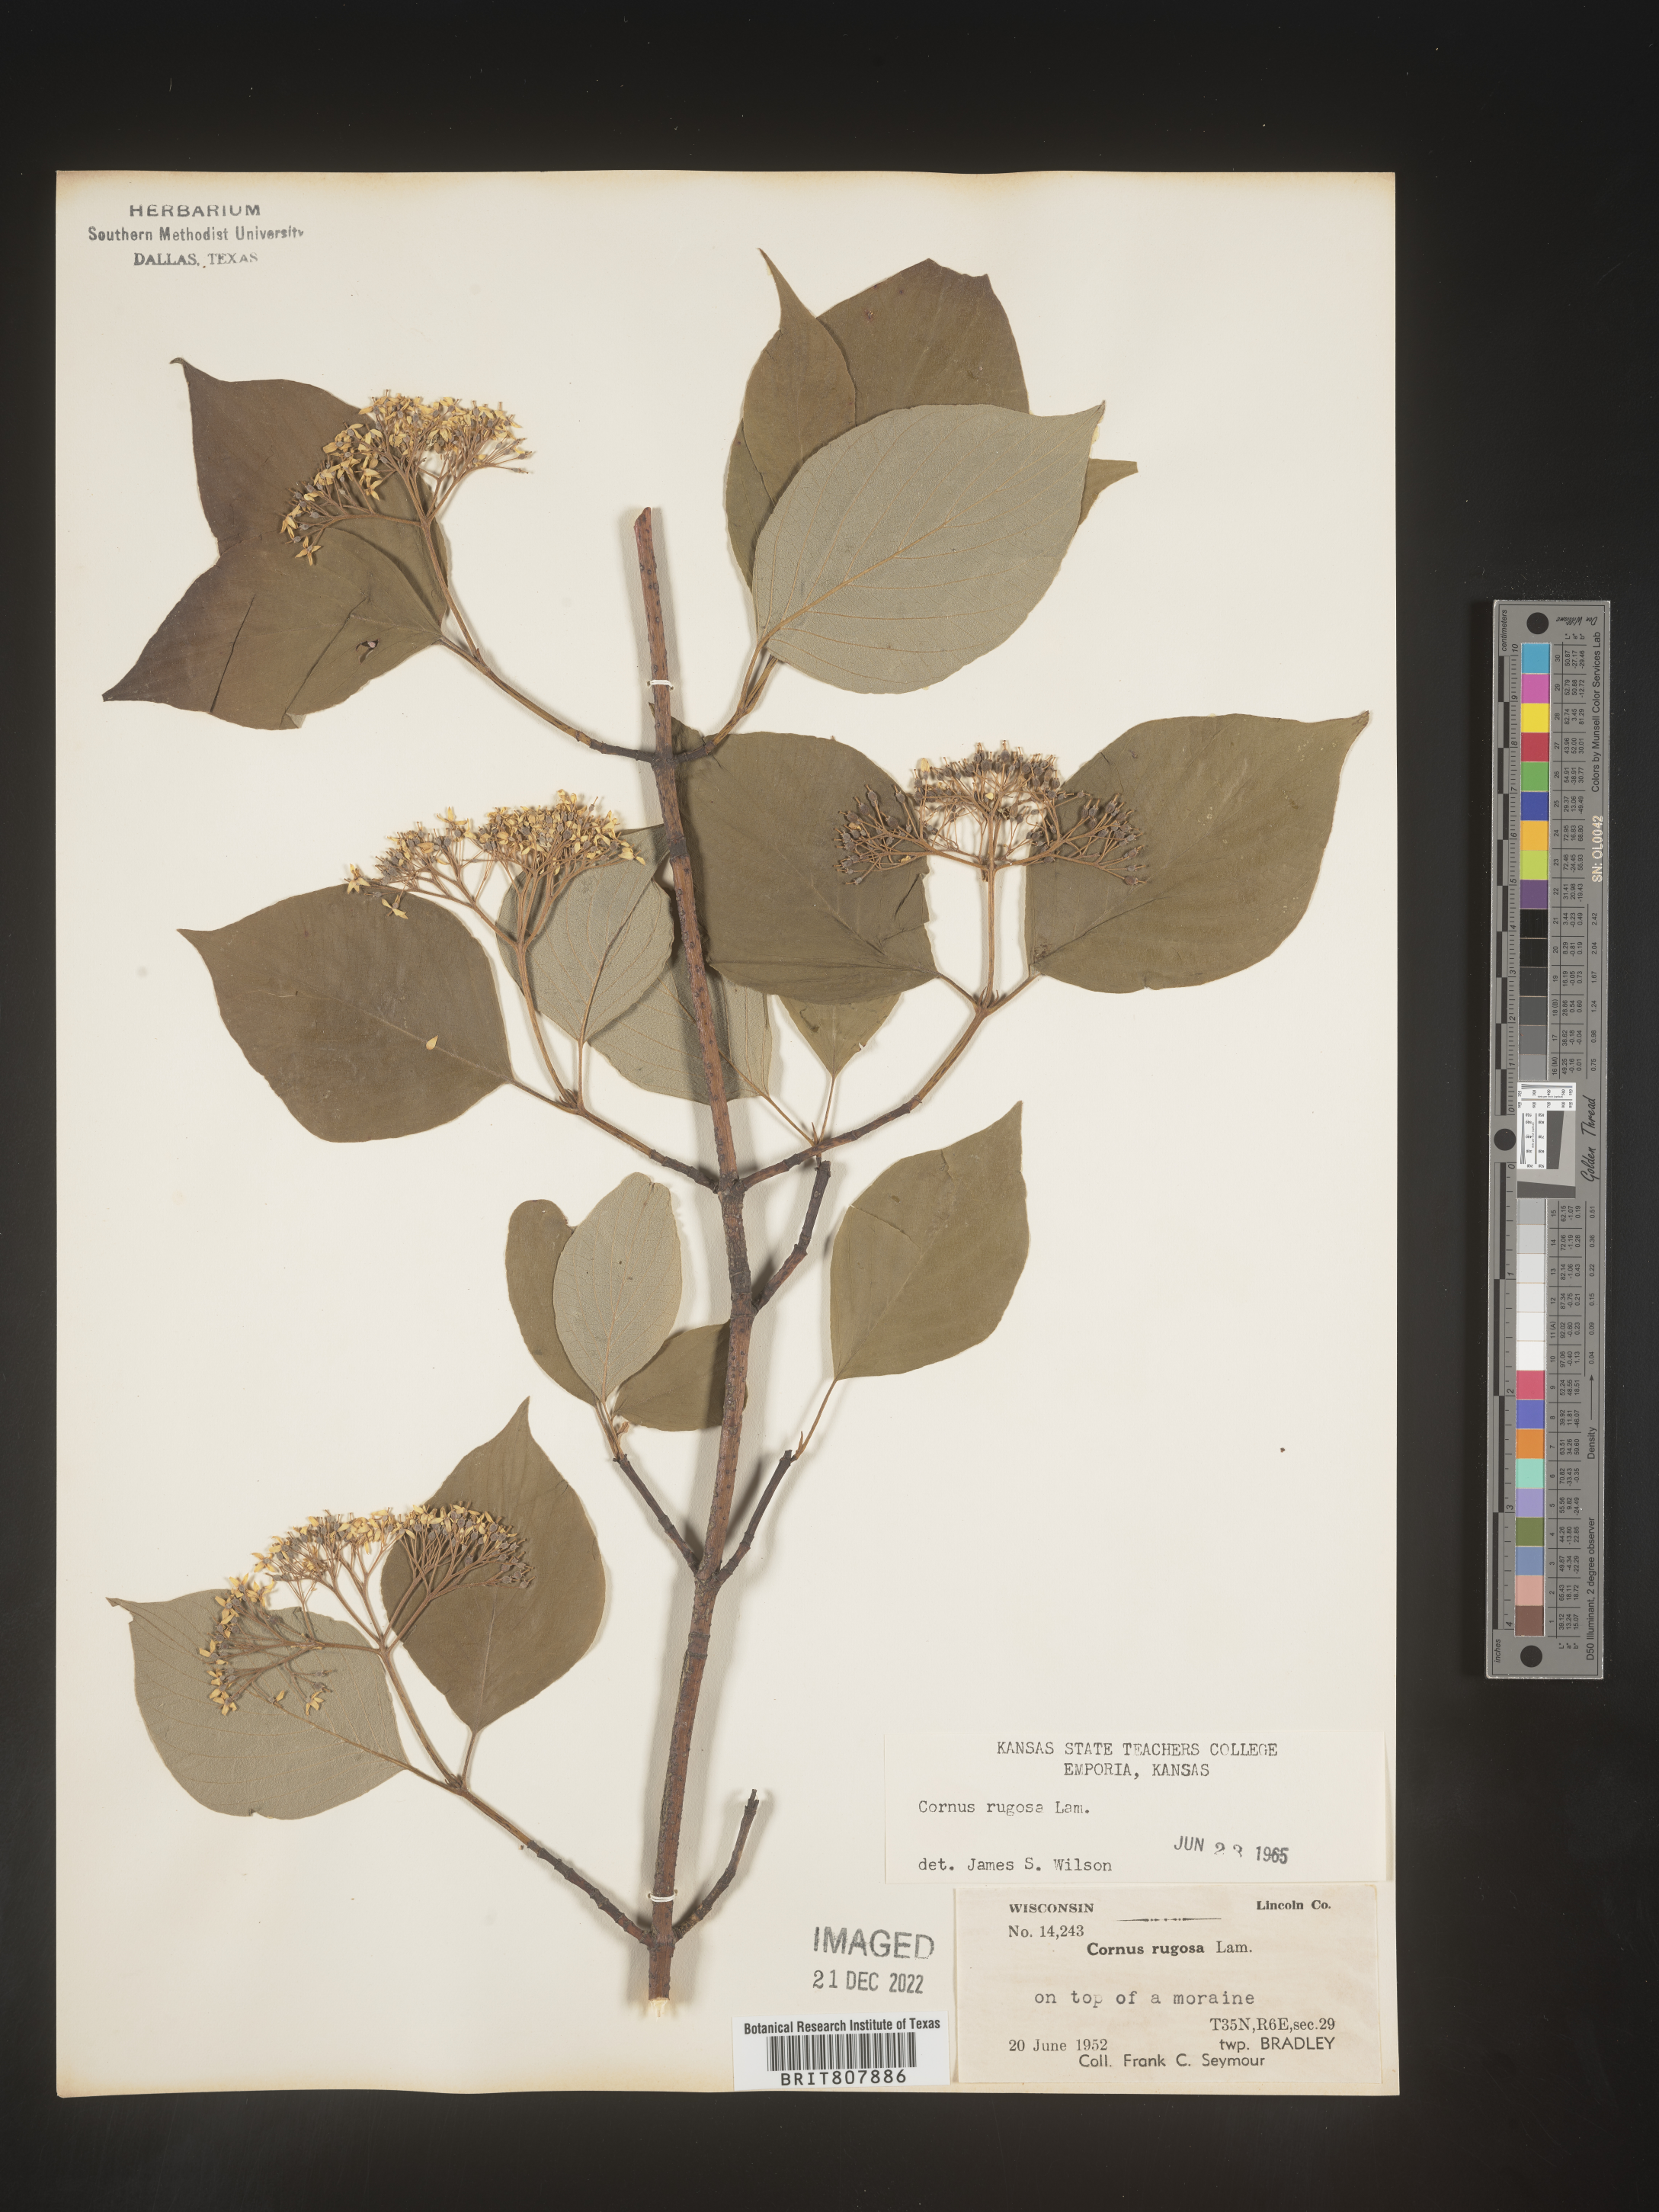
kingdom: Plantae
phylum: Tracheophyta
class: Magnoliopsida
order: Cornales
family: Cornaceae
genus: Cornus
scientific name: Cornus rugosa
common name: Round-leaf dogwood
